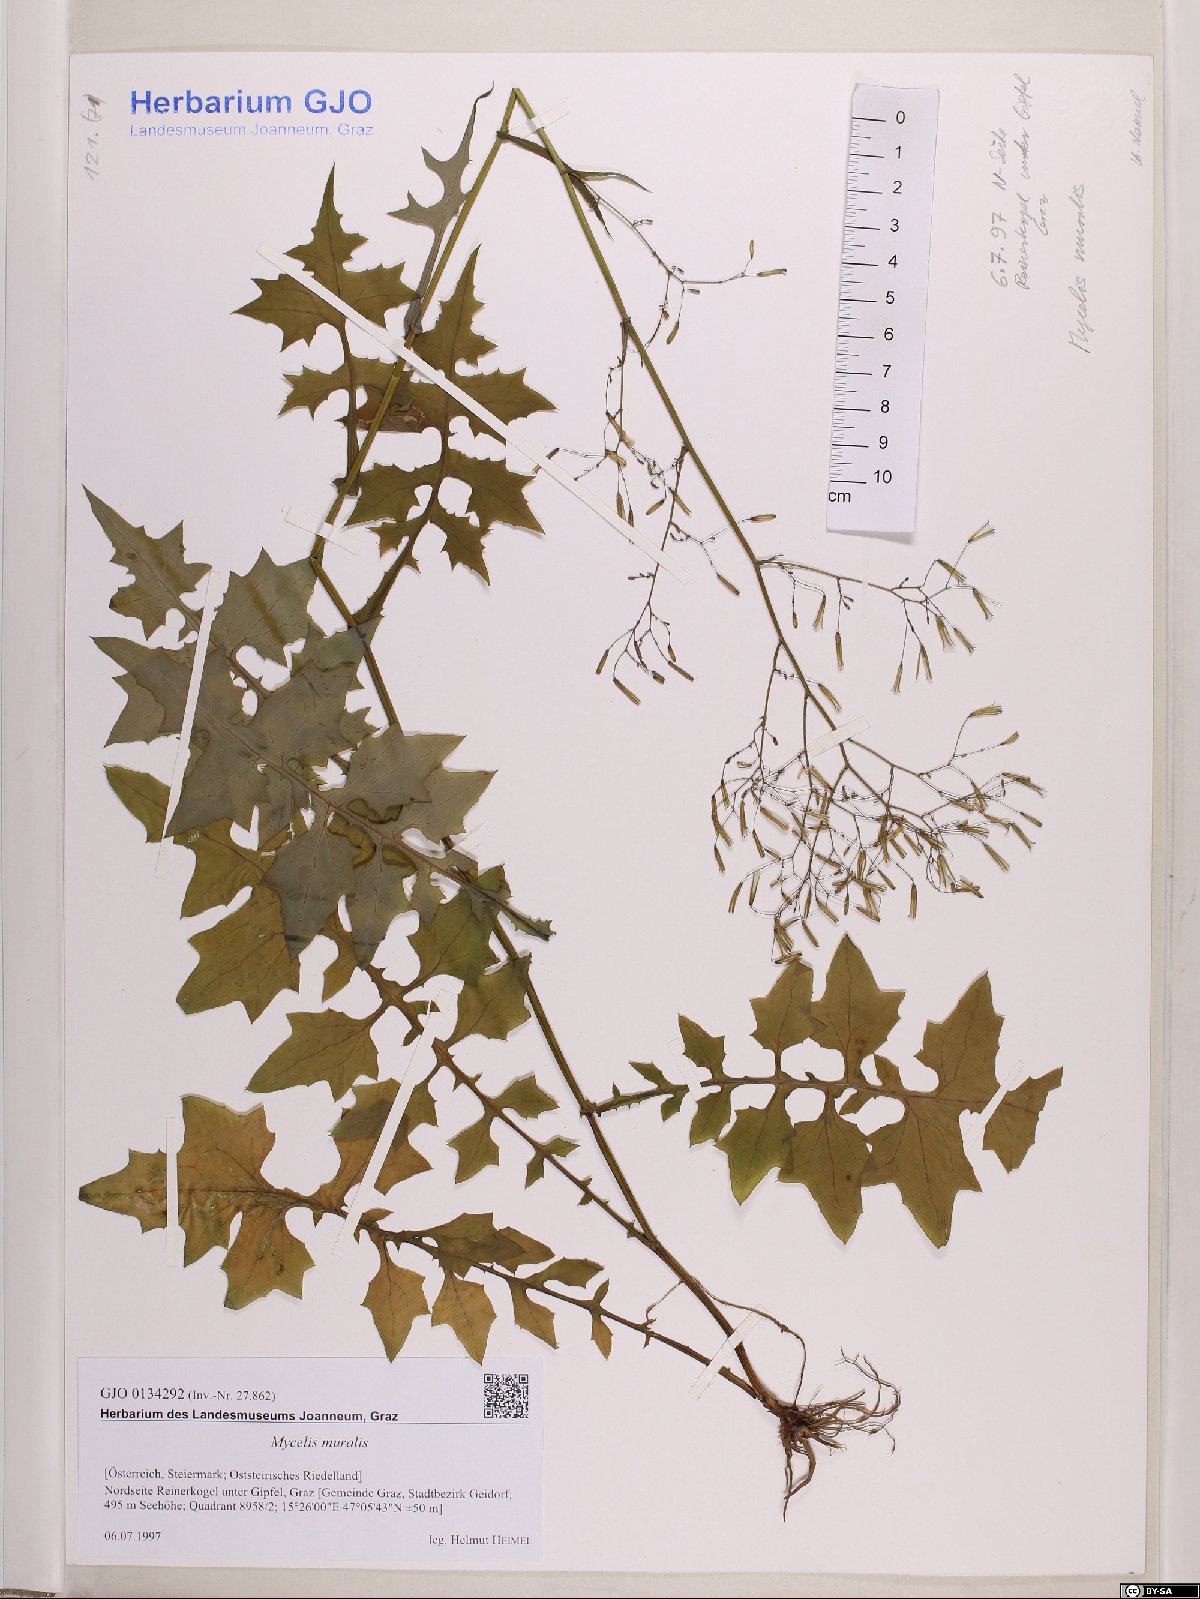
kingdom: Plantae
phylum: Tracheophyta
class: Magnoliopsida
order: Asterales
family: Asteraceae
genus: Mycelis
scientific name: Mycelis muralis
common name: Wall lettuce
